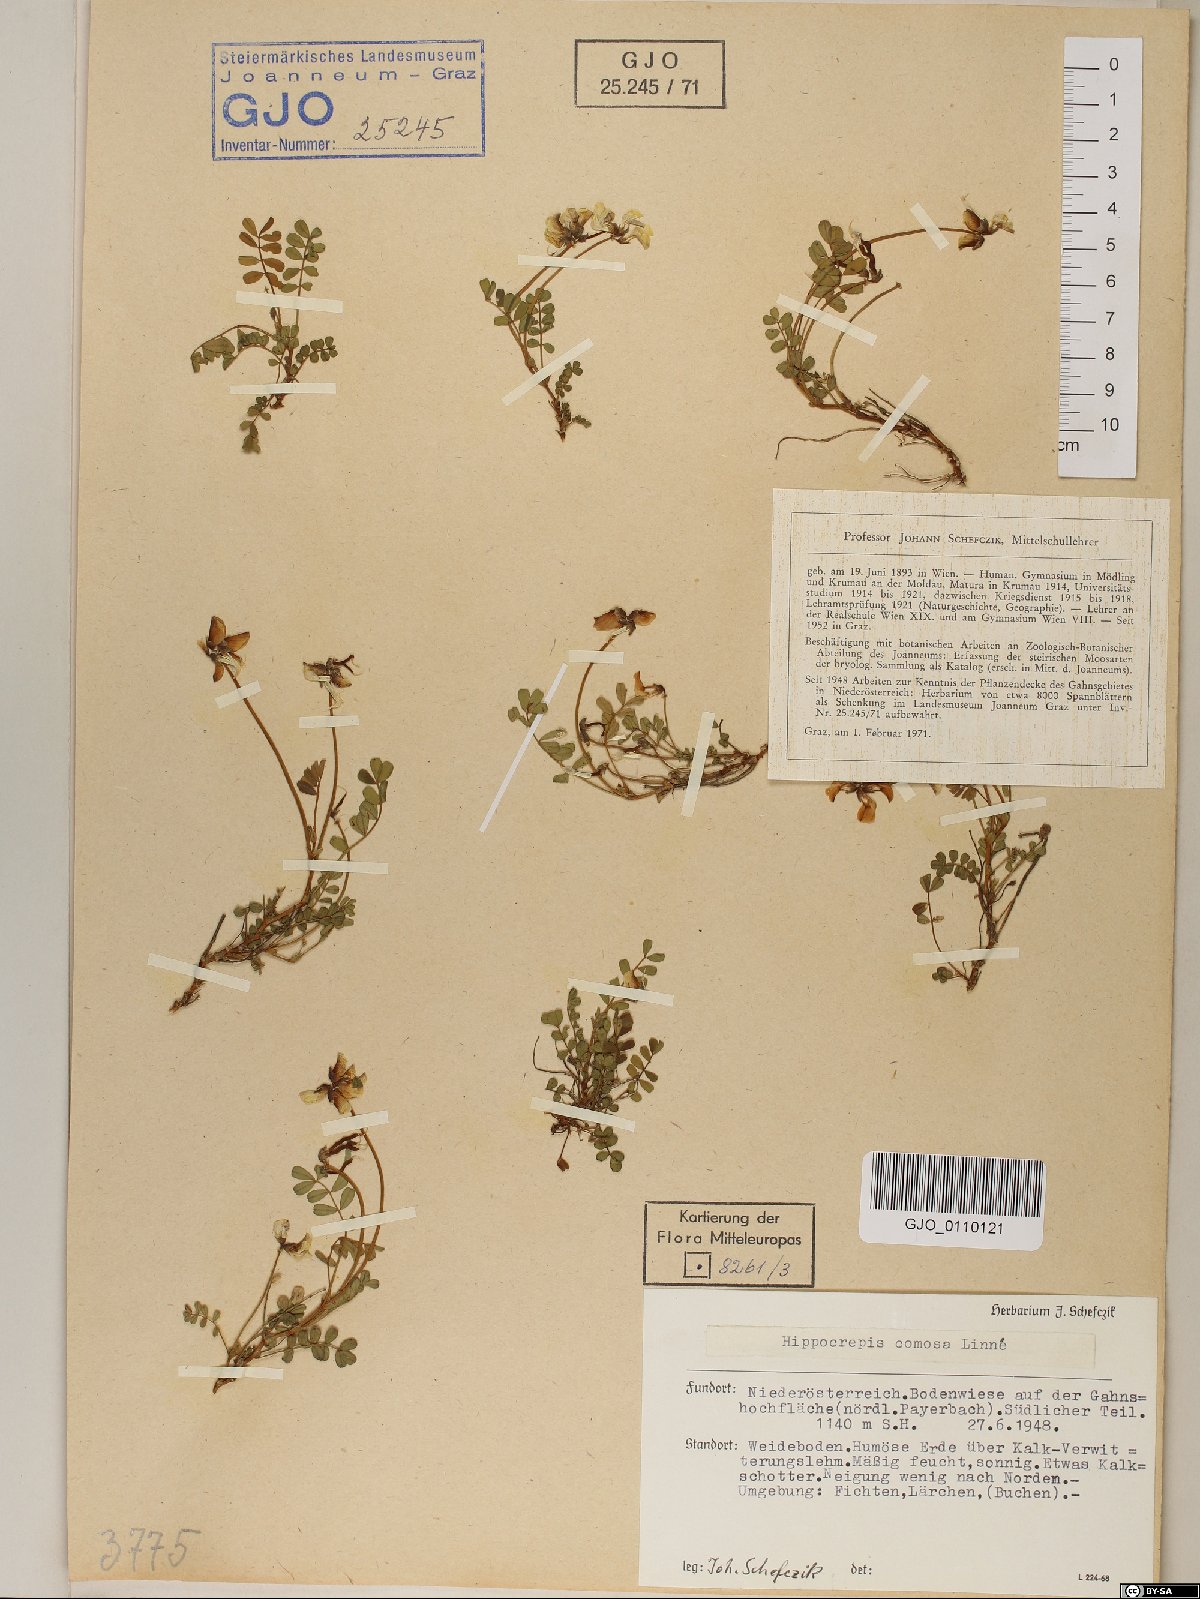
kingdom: Plantae
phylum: Tracheophyta
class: Magnoliopsida
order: Fabales
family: Fabaceae
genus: Hippocrepis
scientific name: Hippocrepis comosa
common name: Horseshoe vetch
